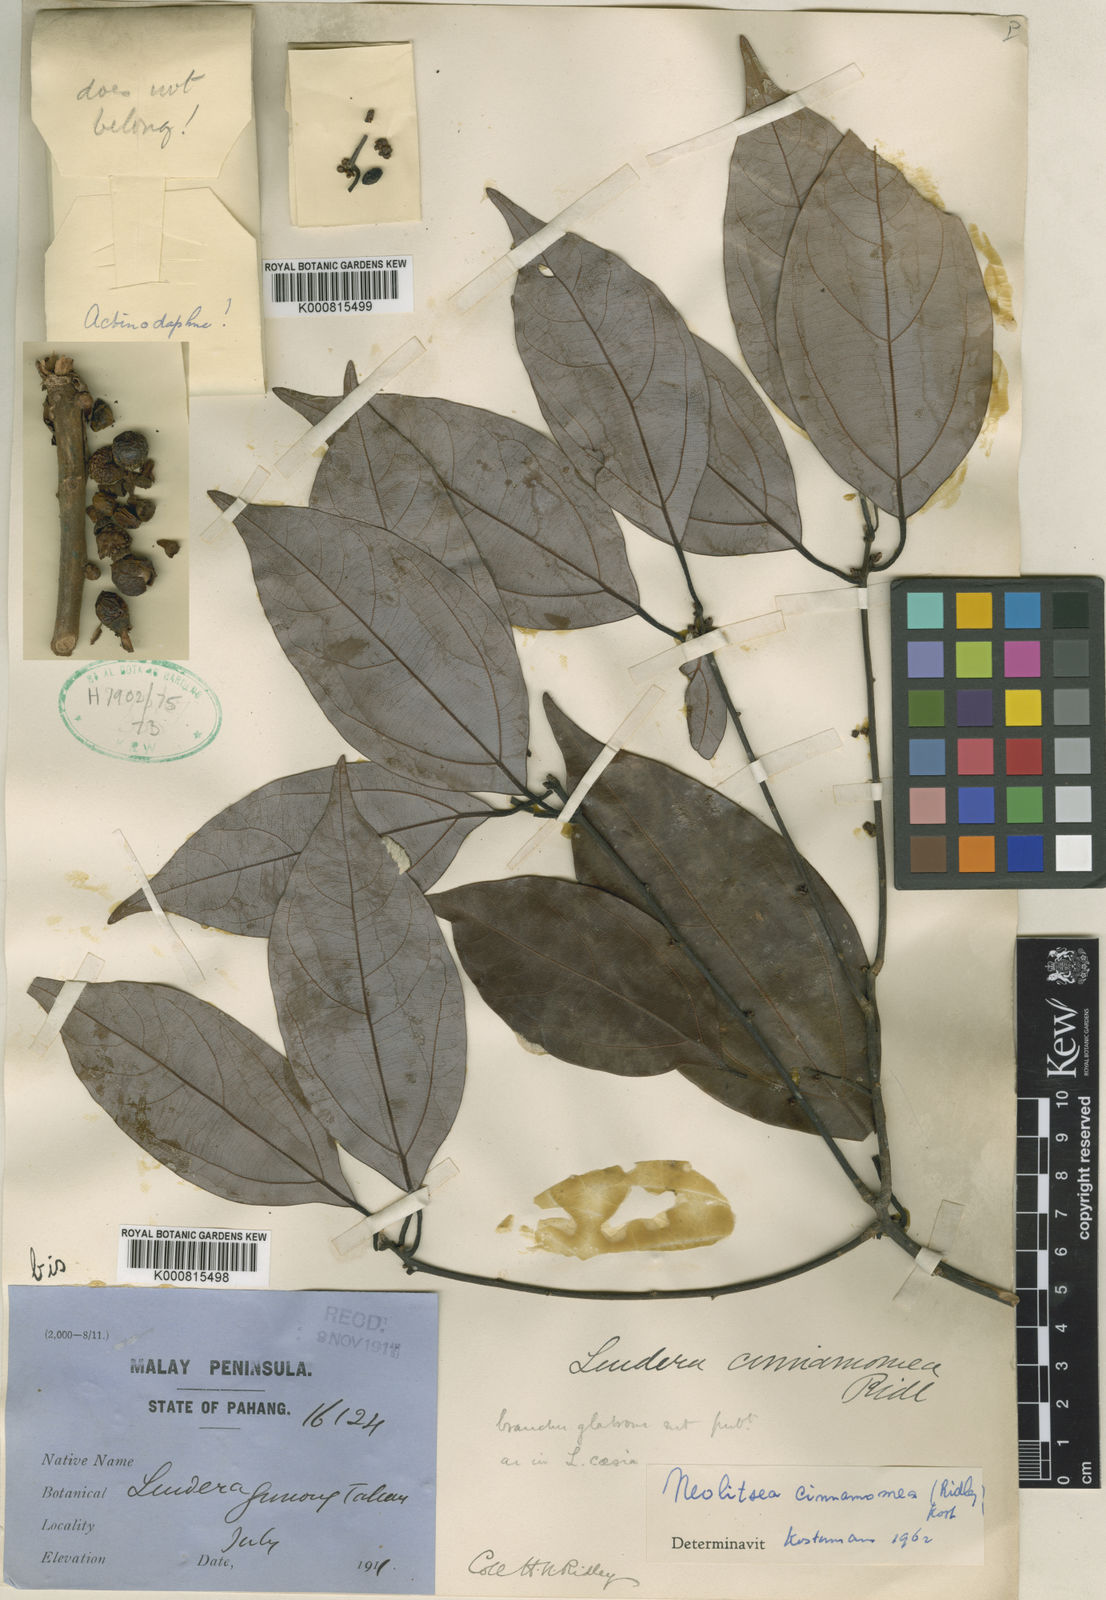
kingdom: Plantae
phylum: Tracheophyta
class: Magnoliopsida
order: Laurales
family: Lauraceae
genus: Neolitsea
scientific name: Neolitsea cinnamomea
